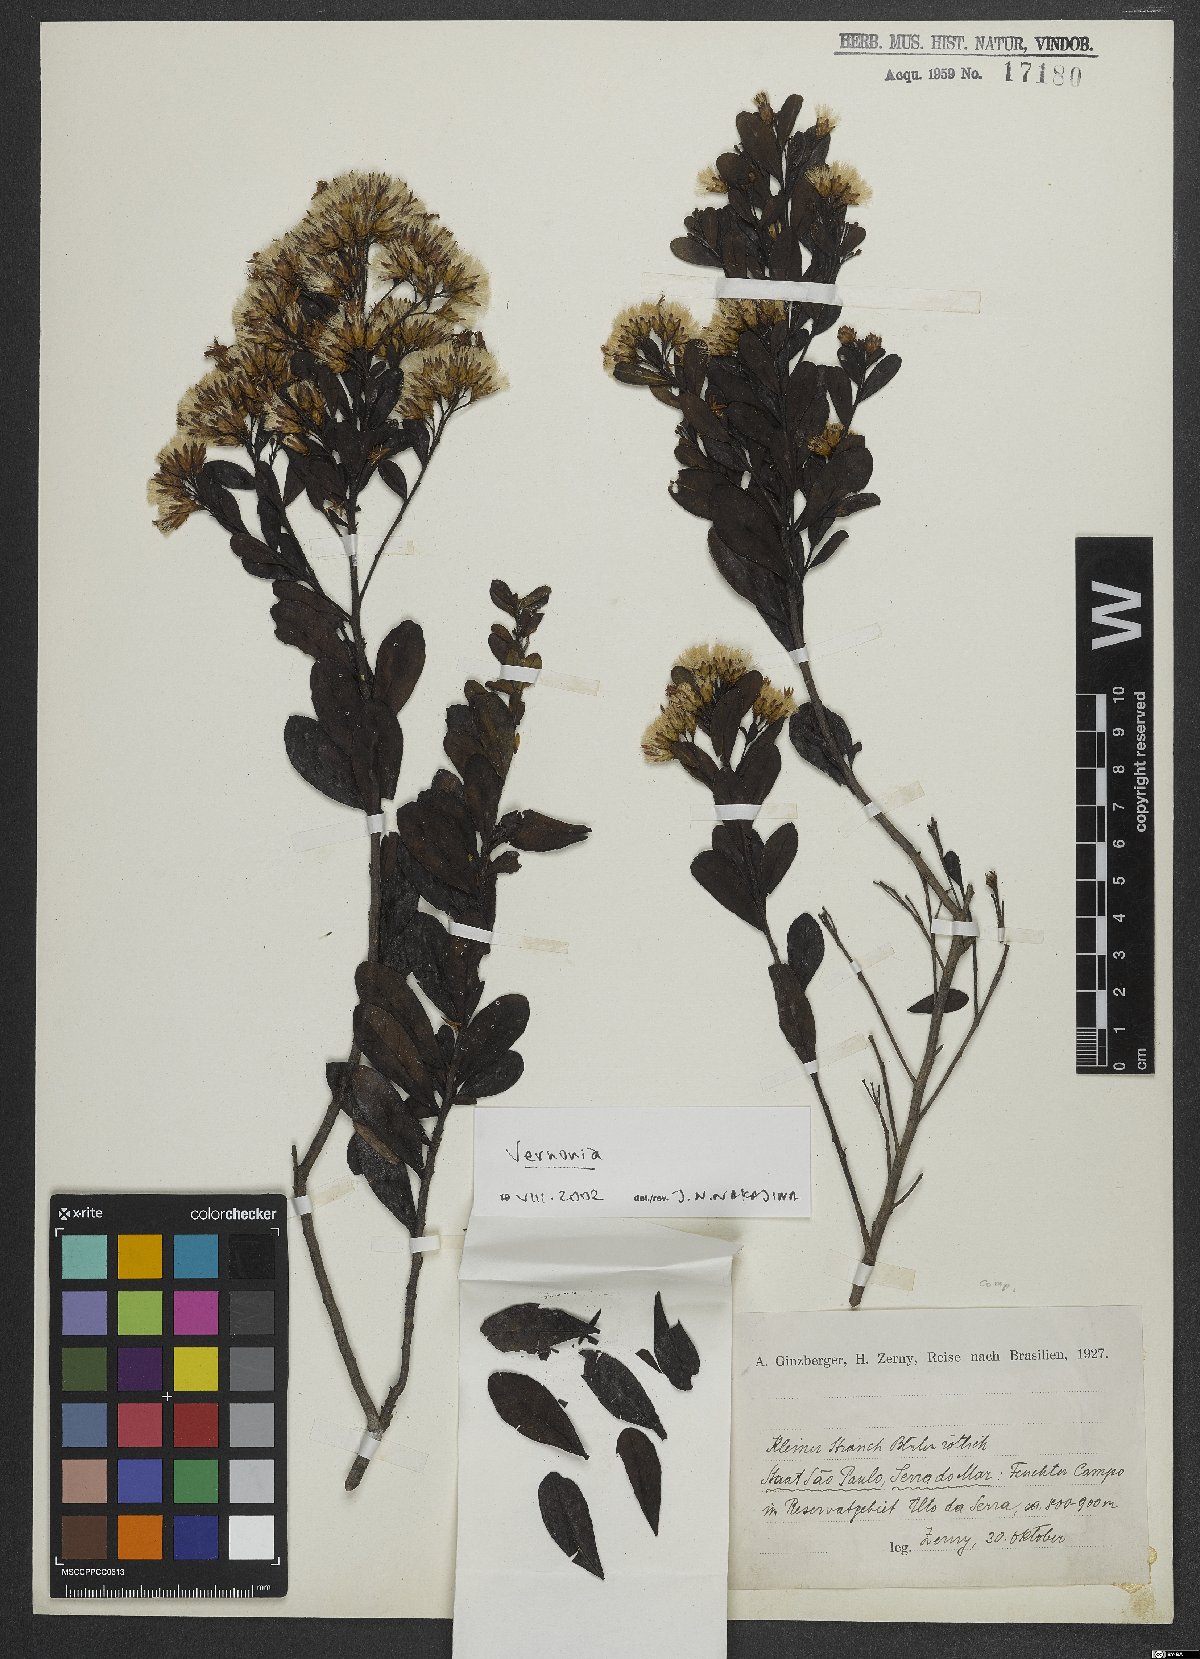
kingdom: Plantae
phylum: Tracheophyta
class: Magnoliopsida
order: Asterales
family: Asteraceae
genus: Vernonia
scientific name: Vernonia
